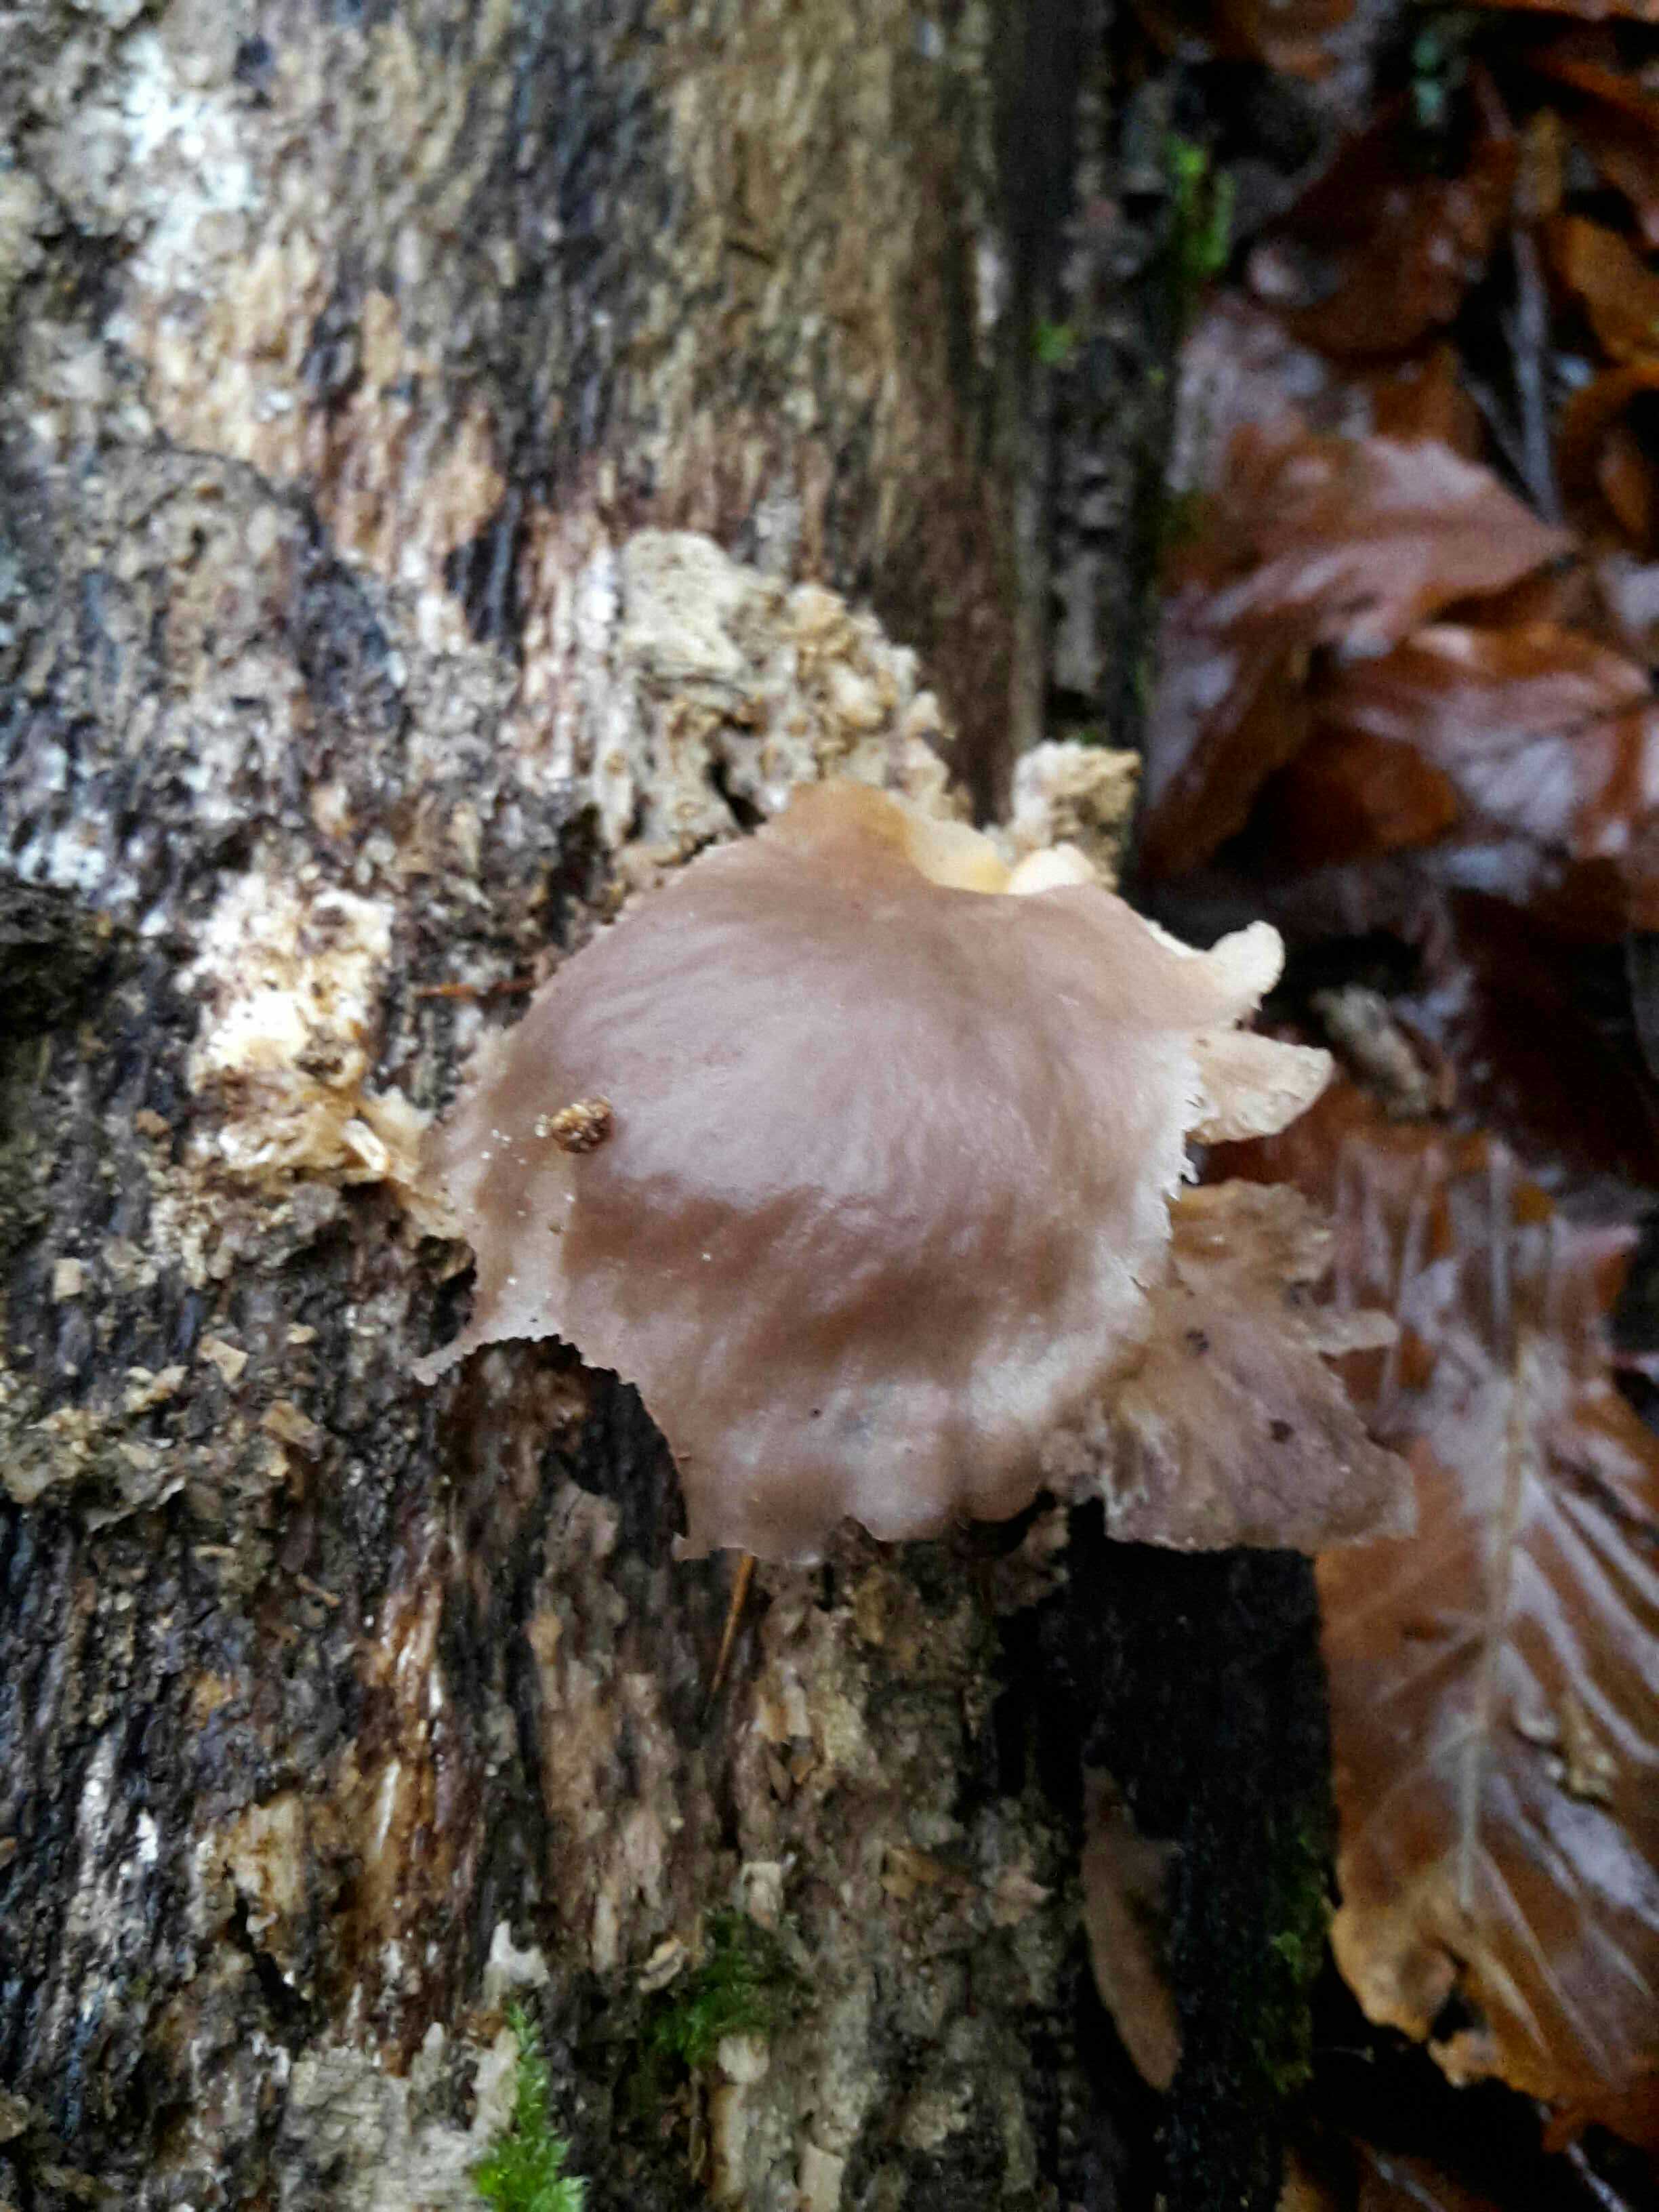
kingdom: Fungi
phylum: Basidiomycota
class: Agaricomycetes
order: Agaricales
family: Pleurotaceae
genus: Pleurotus
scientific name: Pleurotus ostreatus
